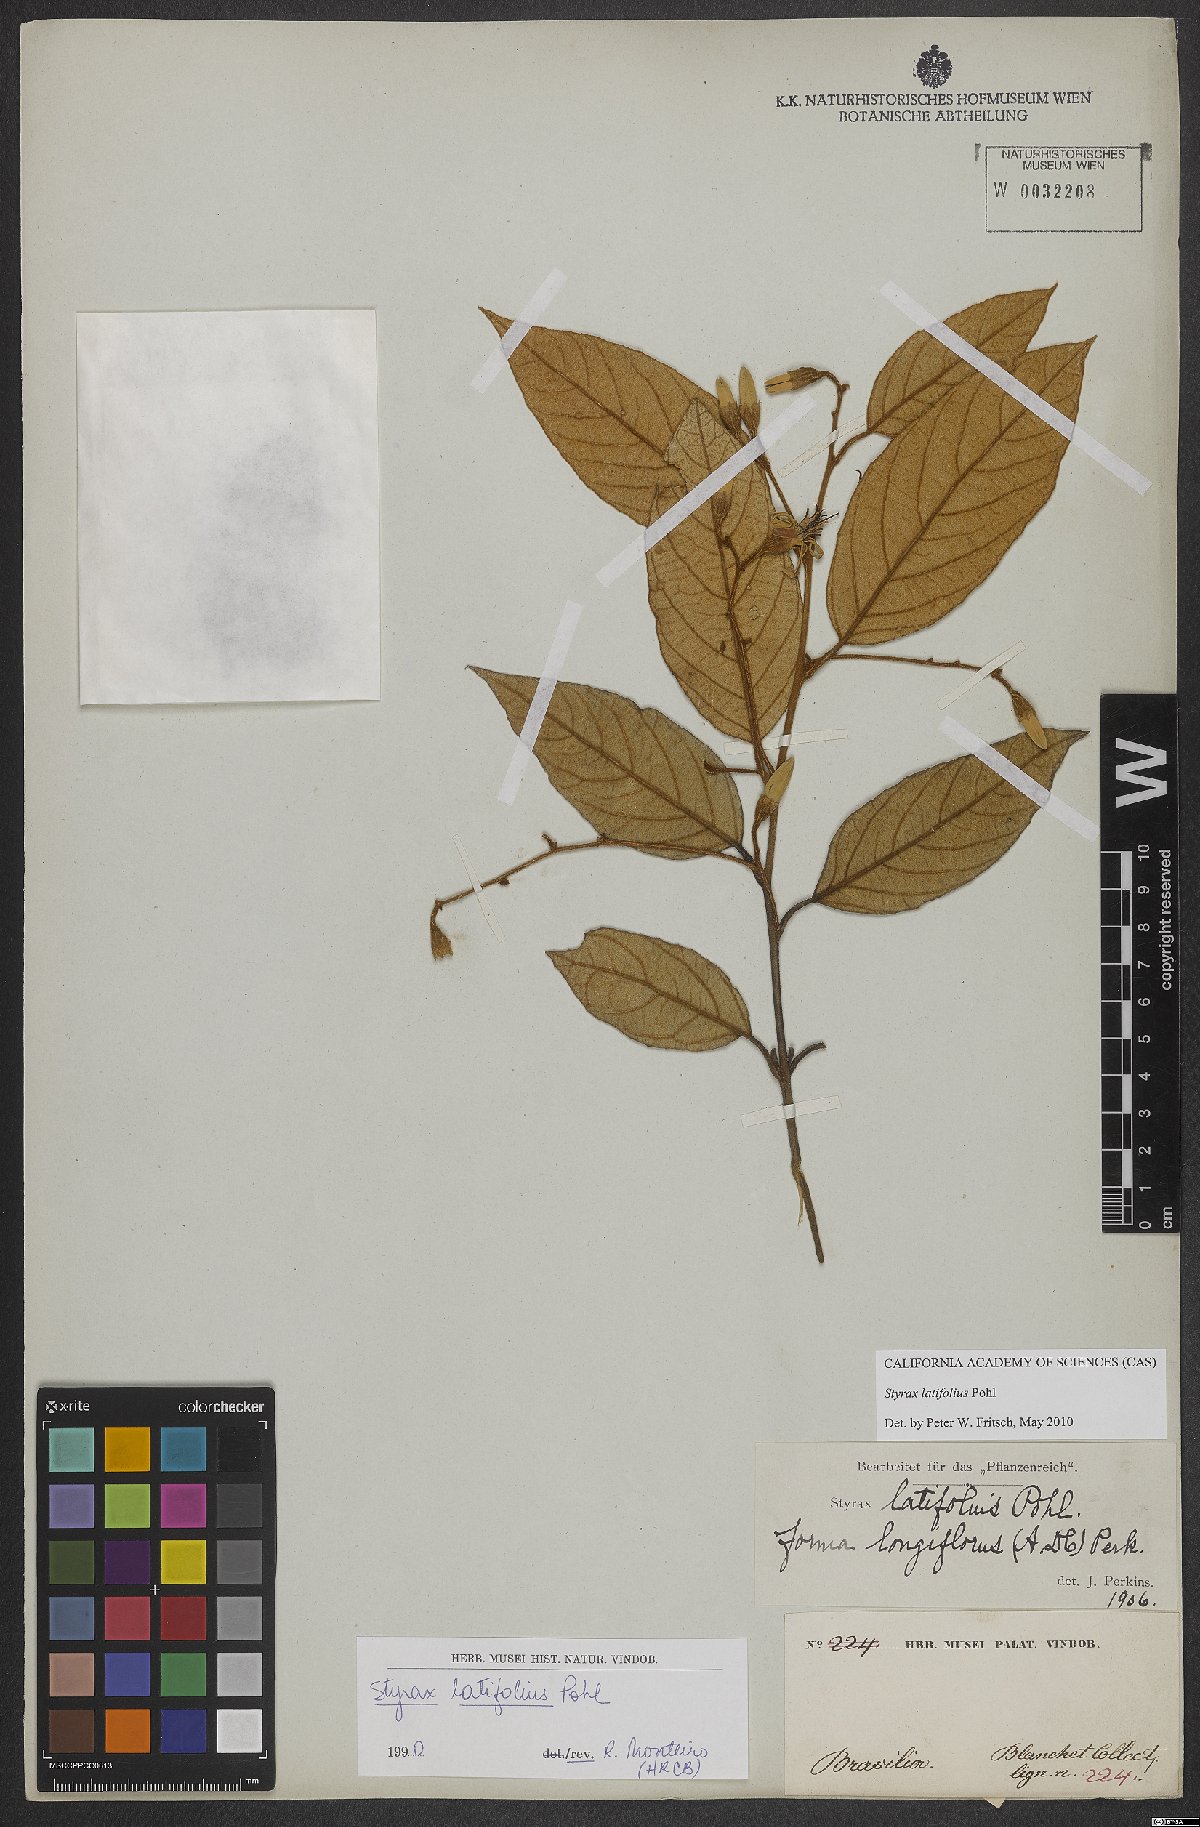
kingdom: Plantae
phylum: Tracheophyta
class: Magnoliopsida
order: Ericales
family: Styracaceae
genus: Styrax
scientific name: Styrax latifolius
